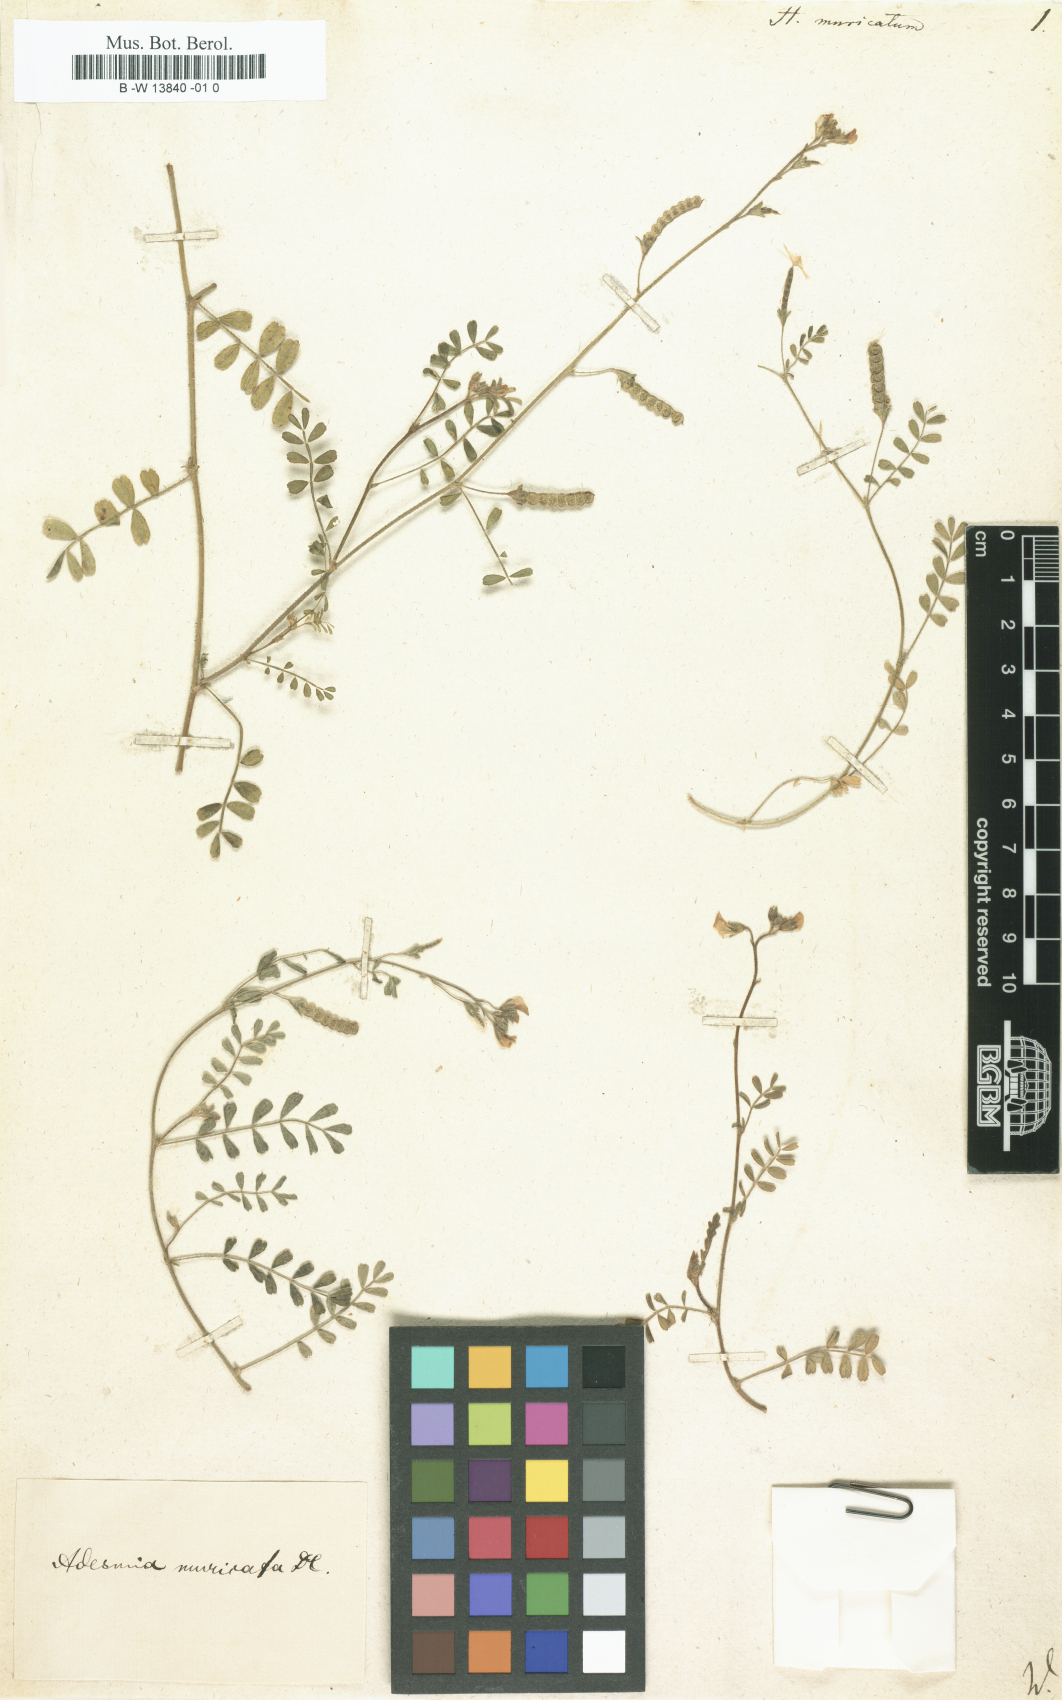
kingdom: Plantae
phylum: Tracheophyta
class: Magnoliopsida
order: Fabales
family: Fabaceae
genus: Adesmia
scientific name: Adesmia muricata
